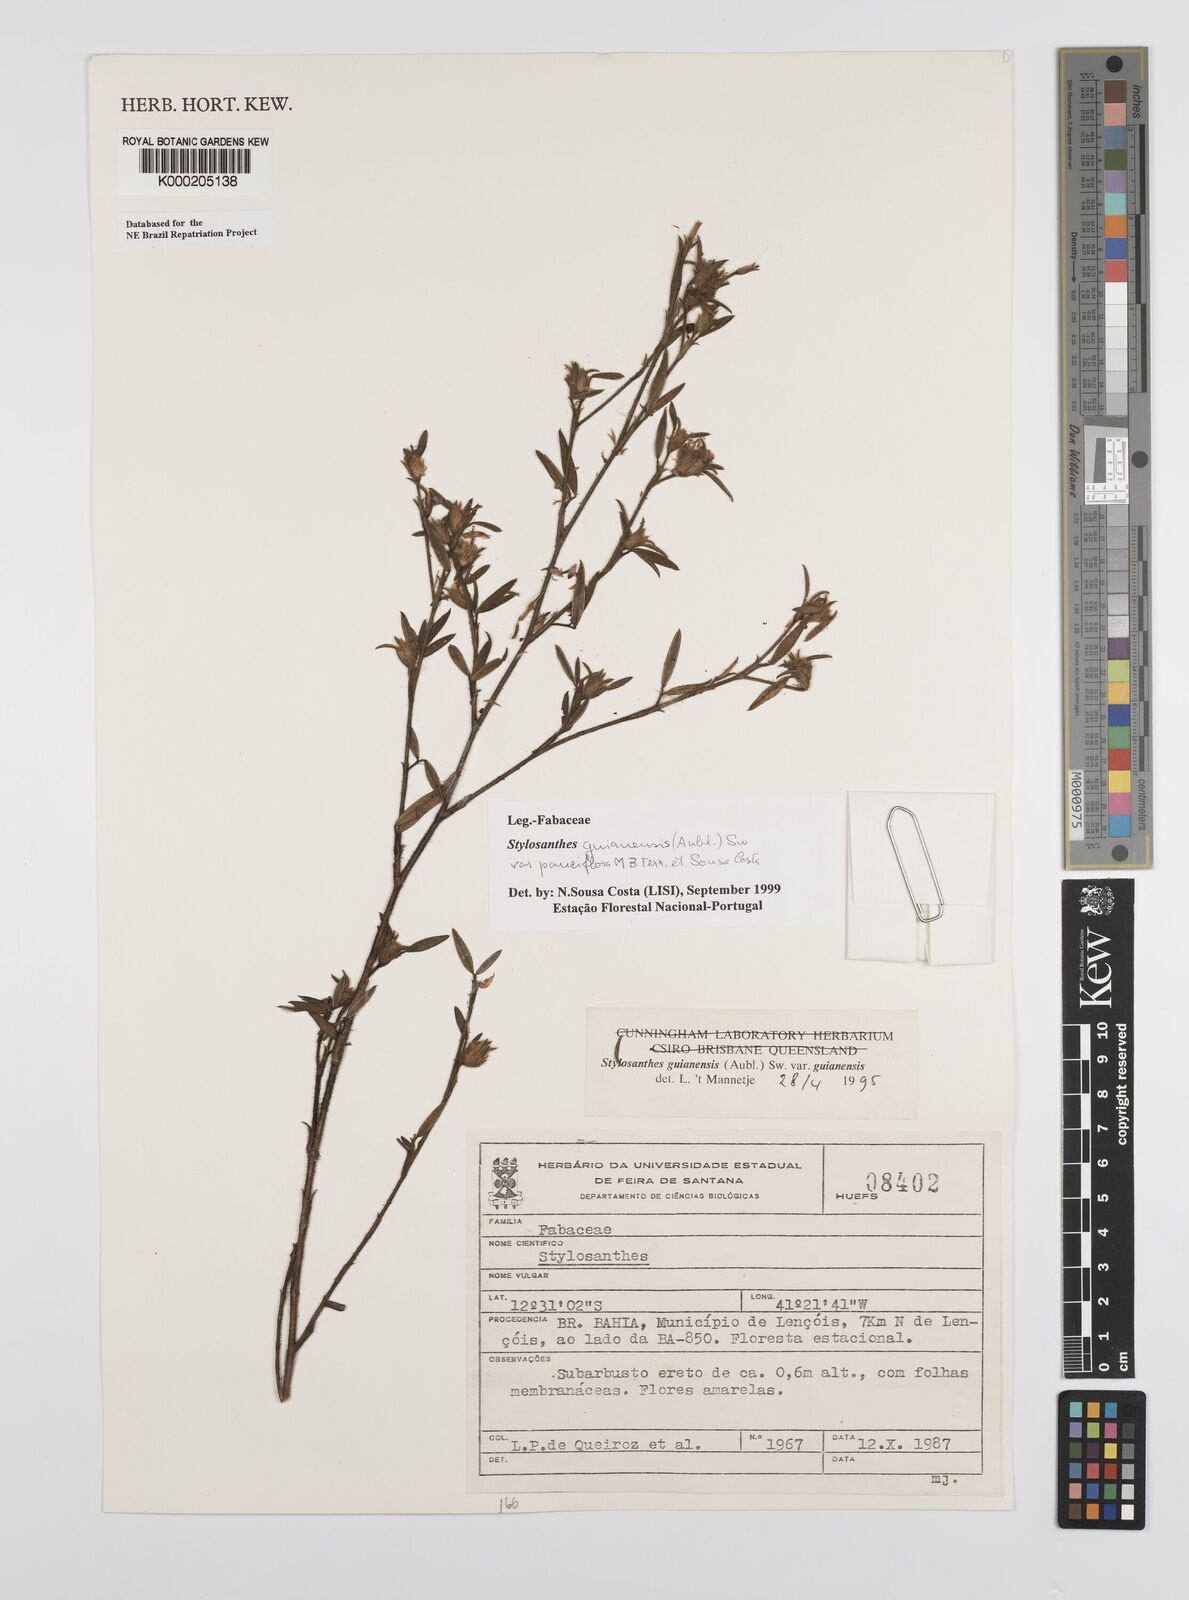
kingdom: Plantae
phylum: Tracheophyta
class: Magnoliopsida
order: Fabales
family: Fabaceae
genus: Stylosanthes
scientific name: Stylosanthes guianensis
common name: Pencil flower
